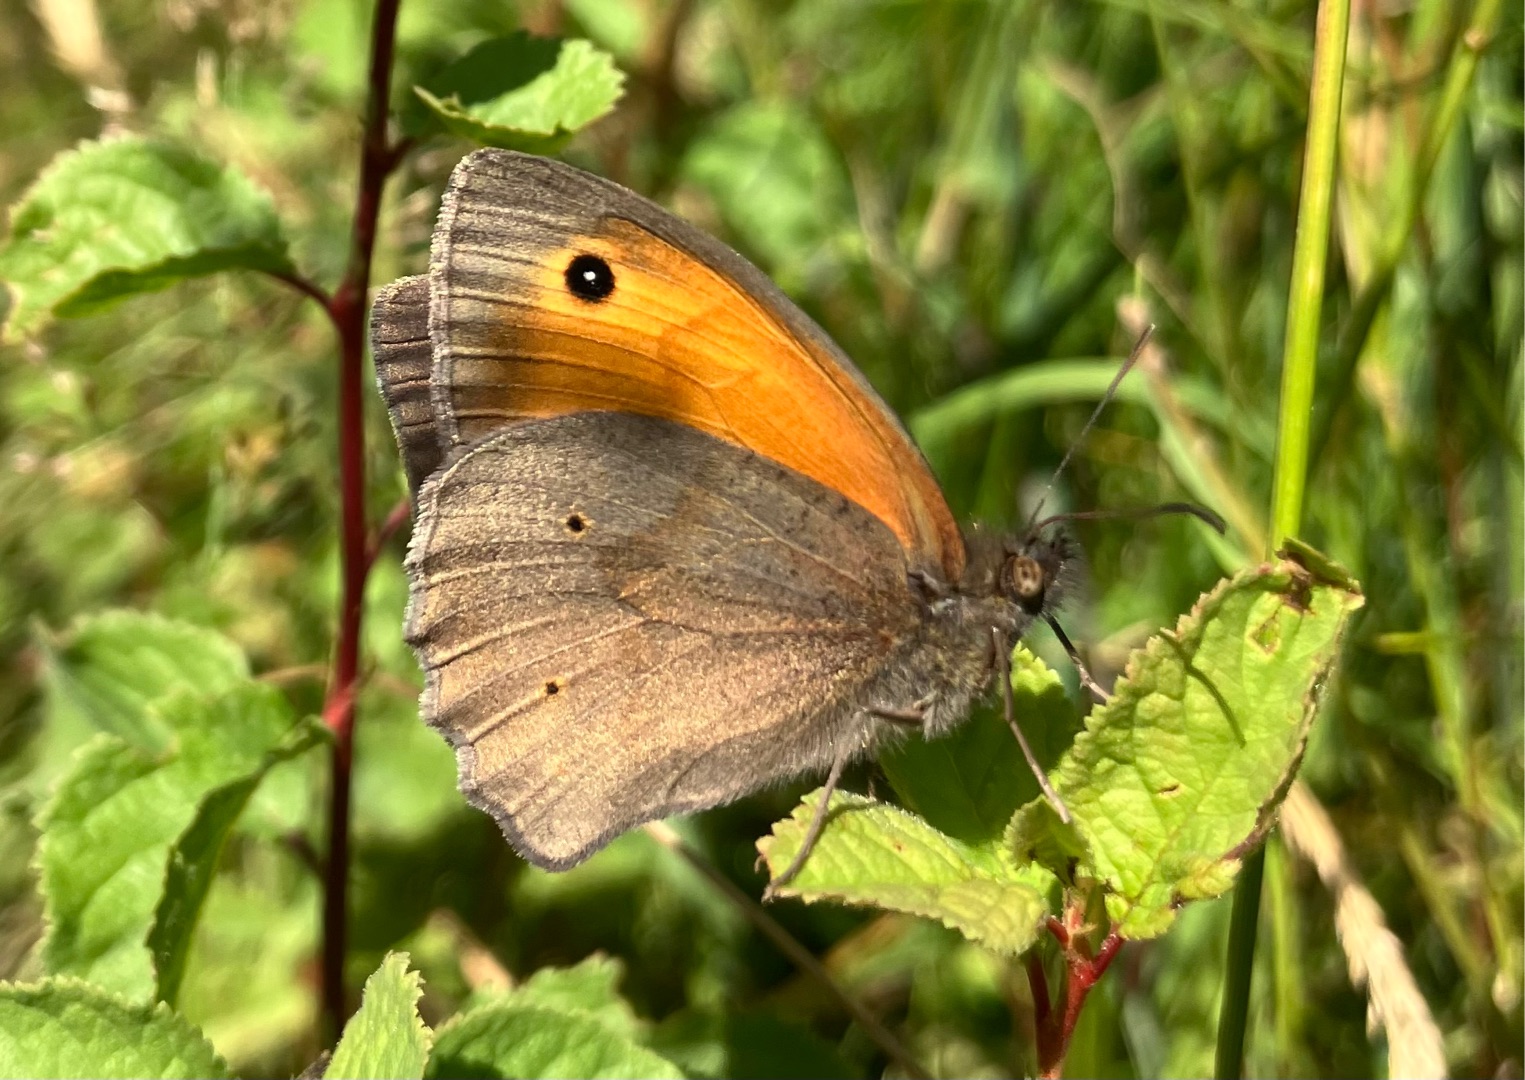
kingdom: Animalia
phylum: Arthropoda
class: Insecta
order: Lepidoptera
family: Nymphalidae
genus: Maniola
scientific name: Maniola jurtina
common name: Græsrandøje
